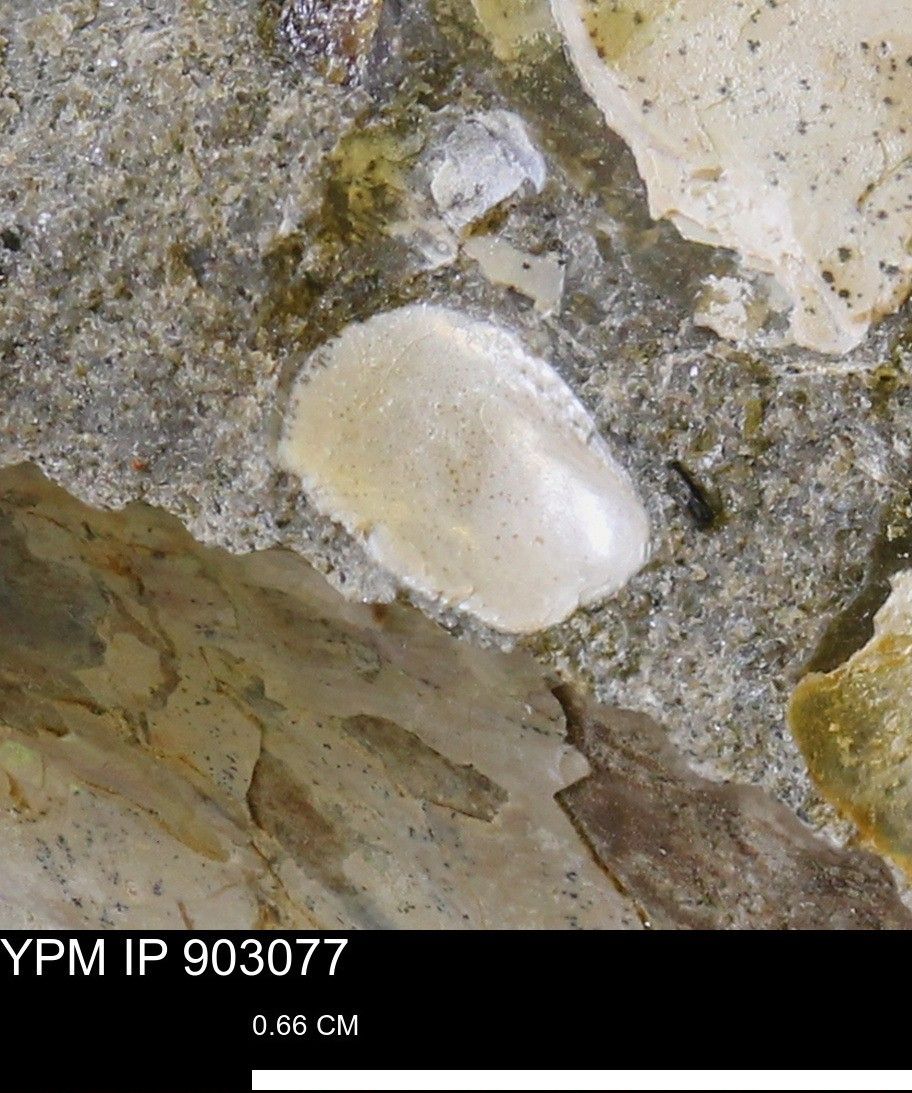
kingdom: Animalia
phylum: Mollusca
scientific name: Mollusca
